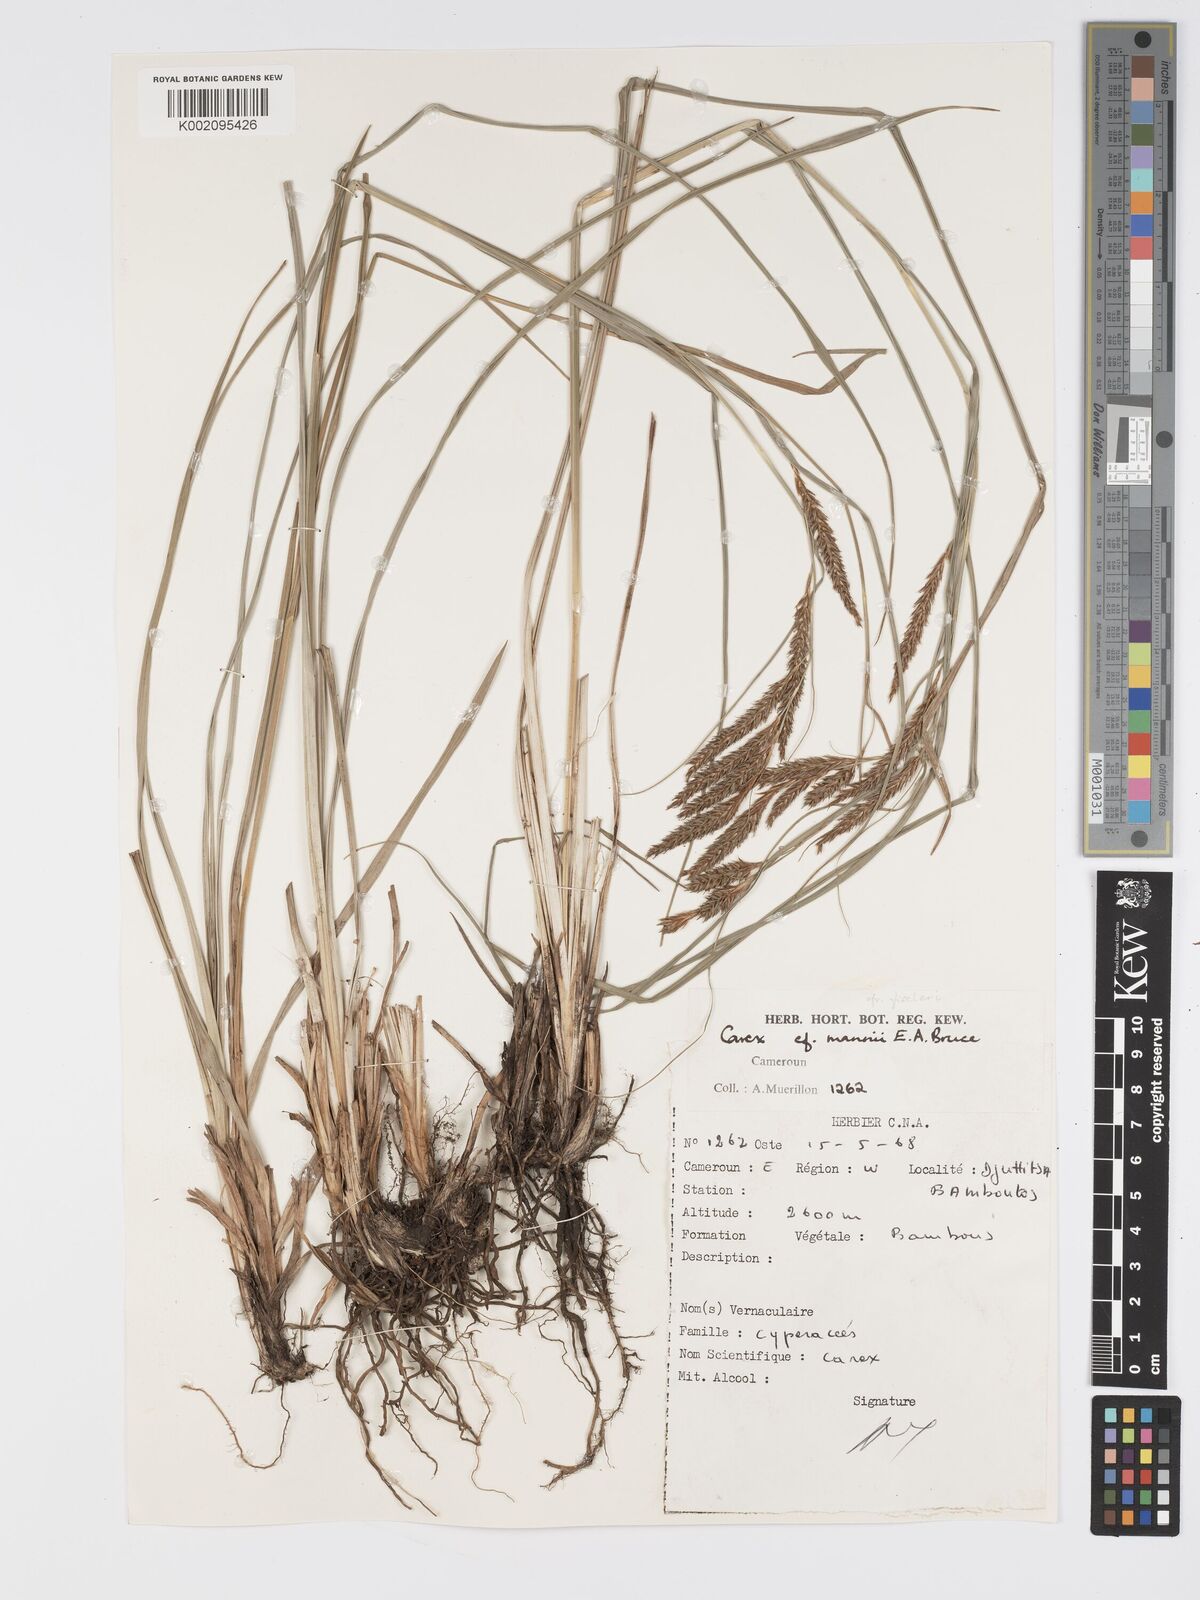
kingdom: Plantae
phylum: Tracheophyta
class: Liliopsida
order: Poales
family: Cyperaceae
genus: Carex
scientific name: Carex fischeri
